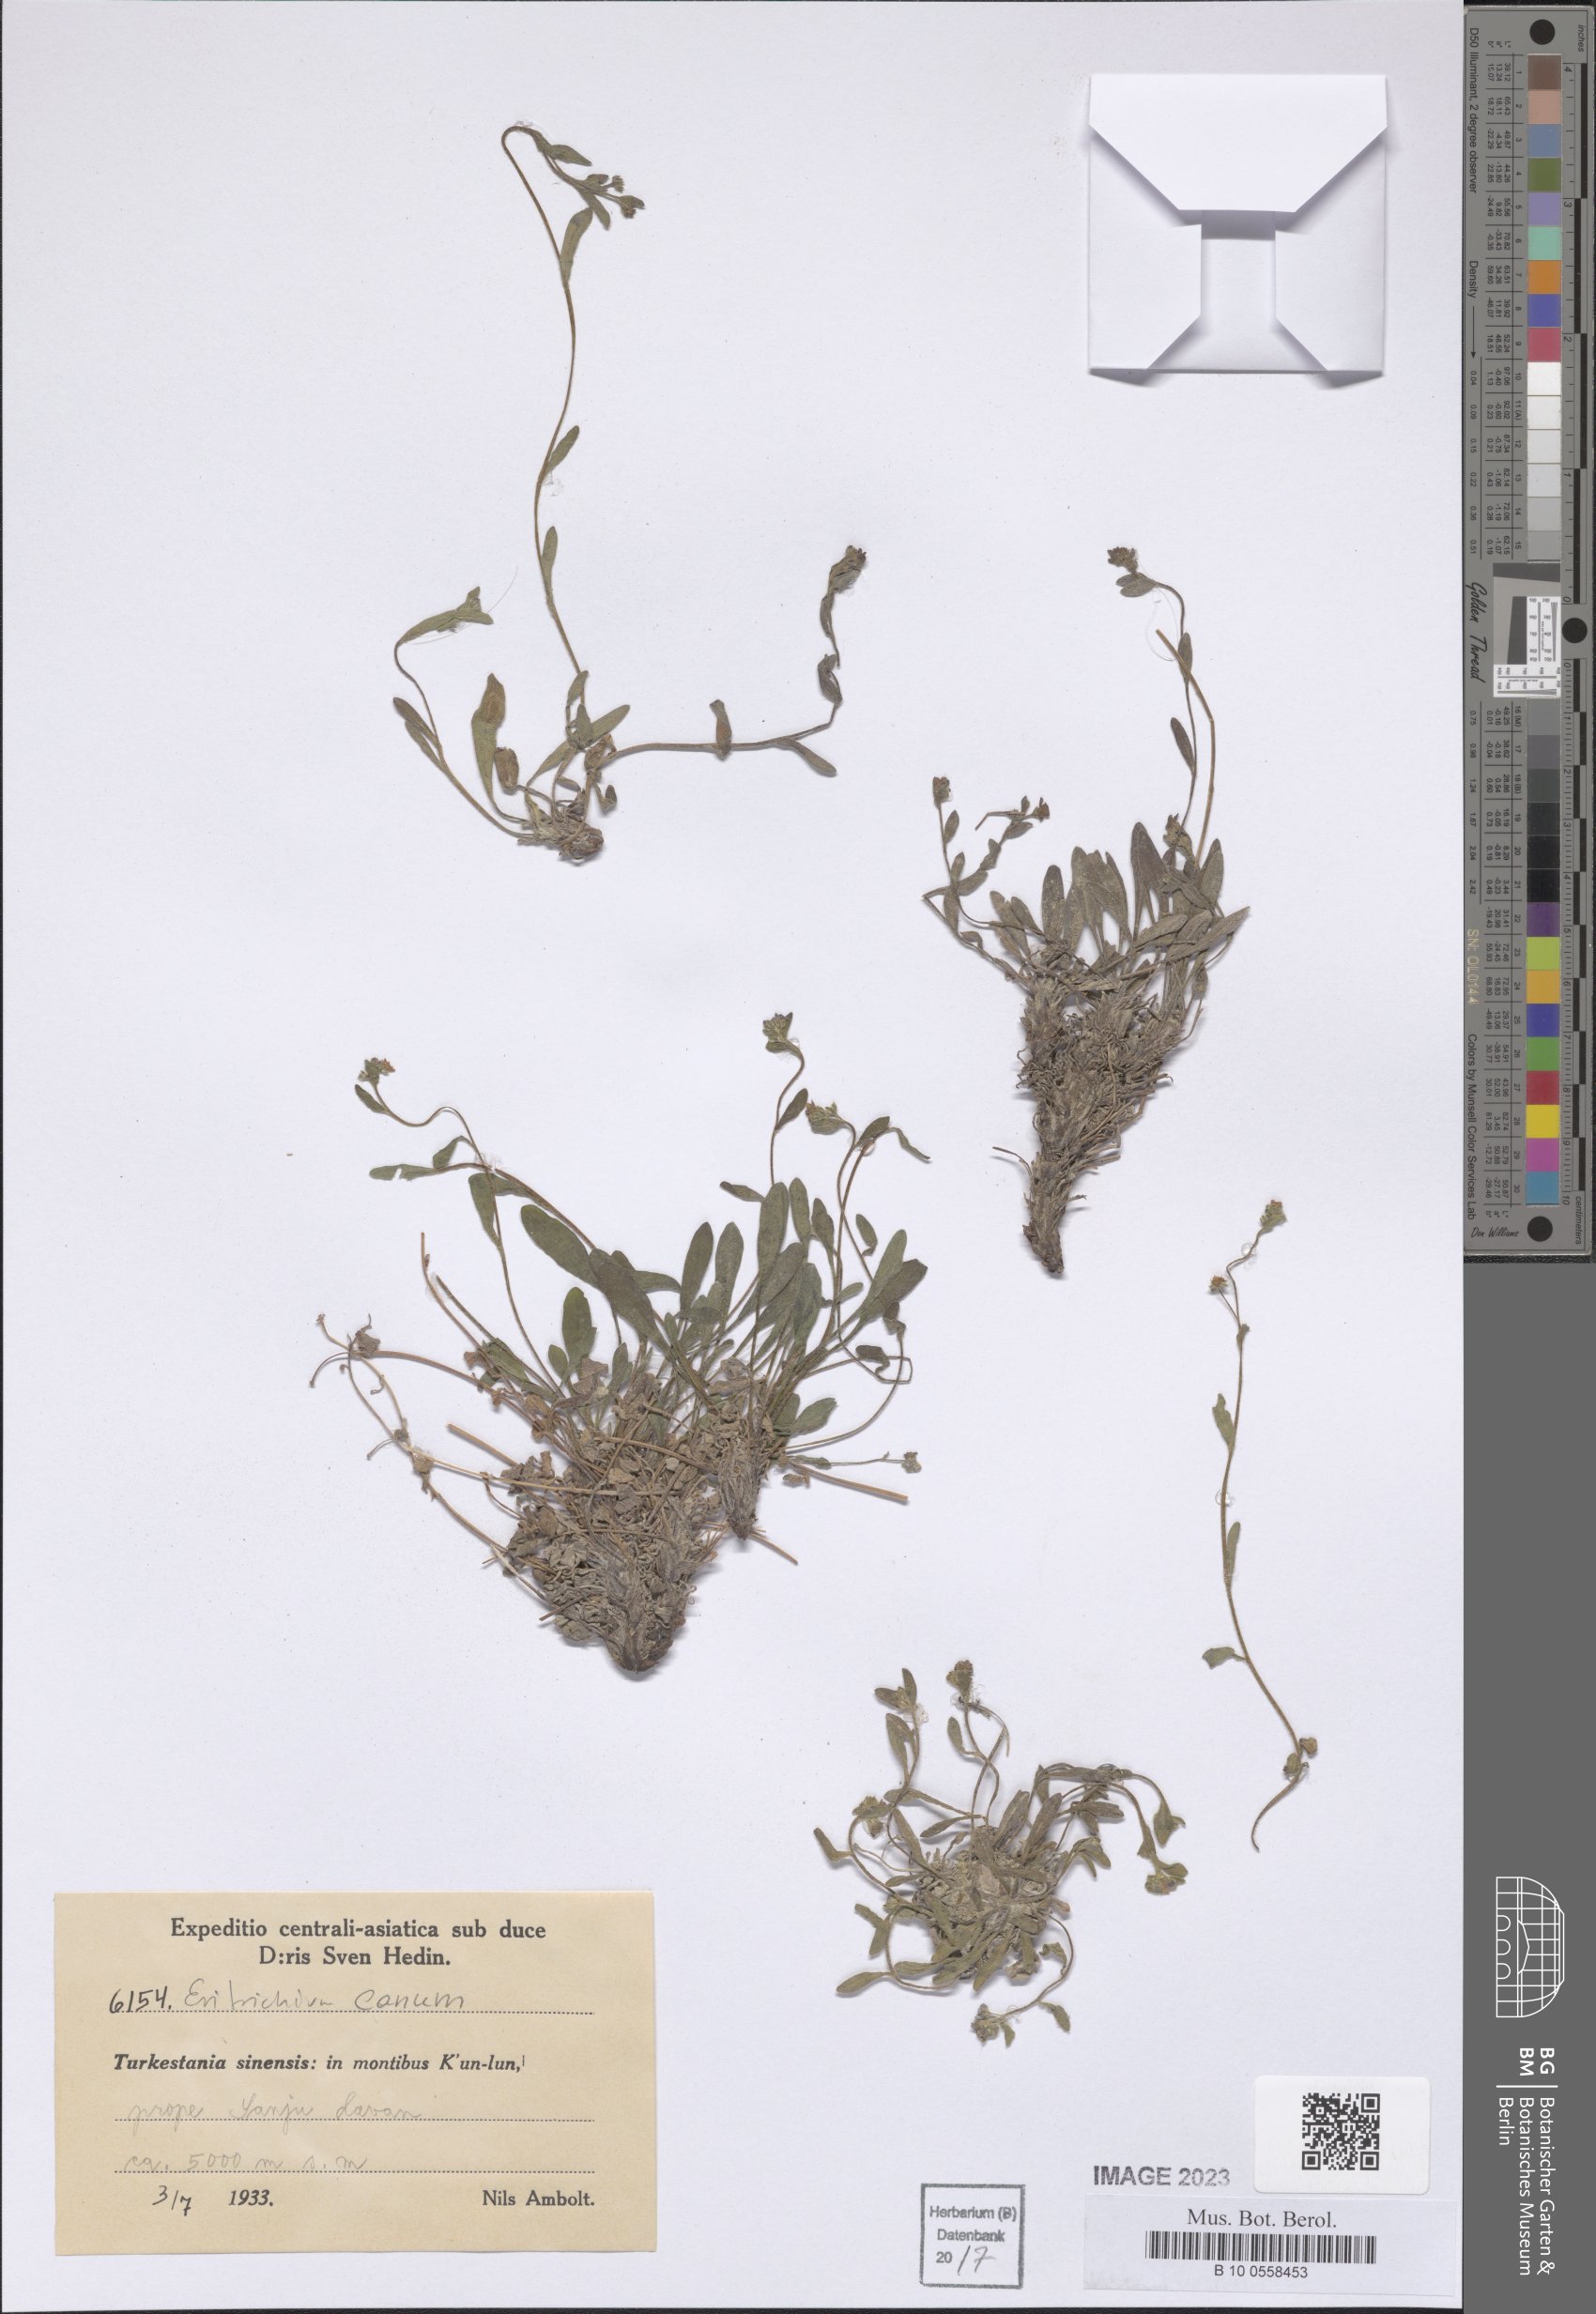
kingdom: Plantae
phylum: Tracheophyta
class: Magnoliopsida
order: Boraginales
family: Boraginaceae
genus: Eritrichium
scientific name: Eritrichium canum
